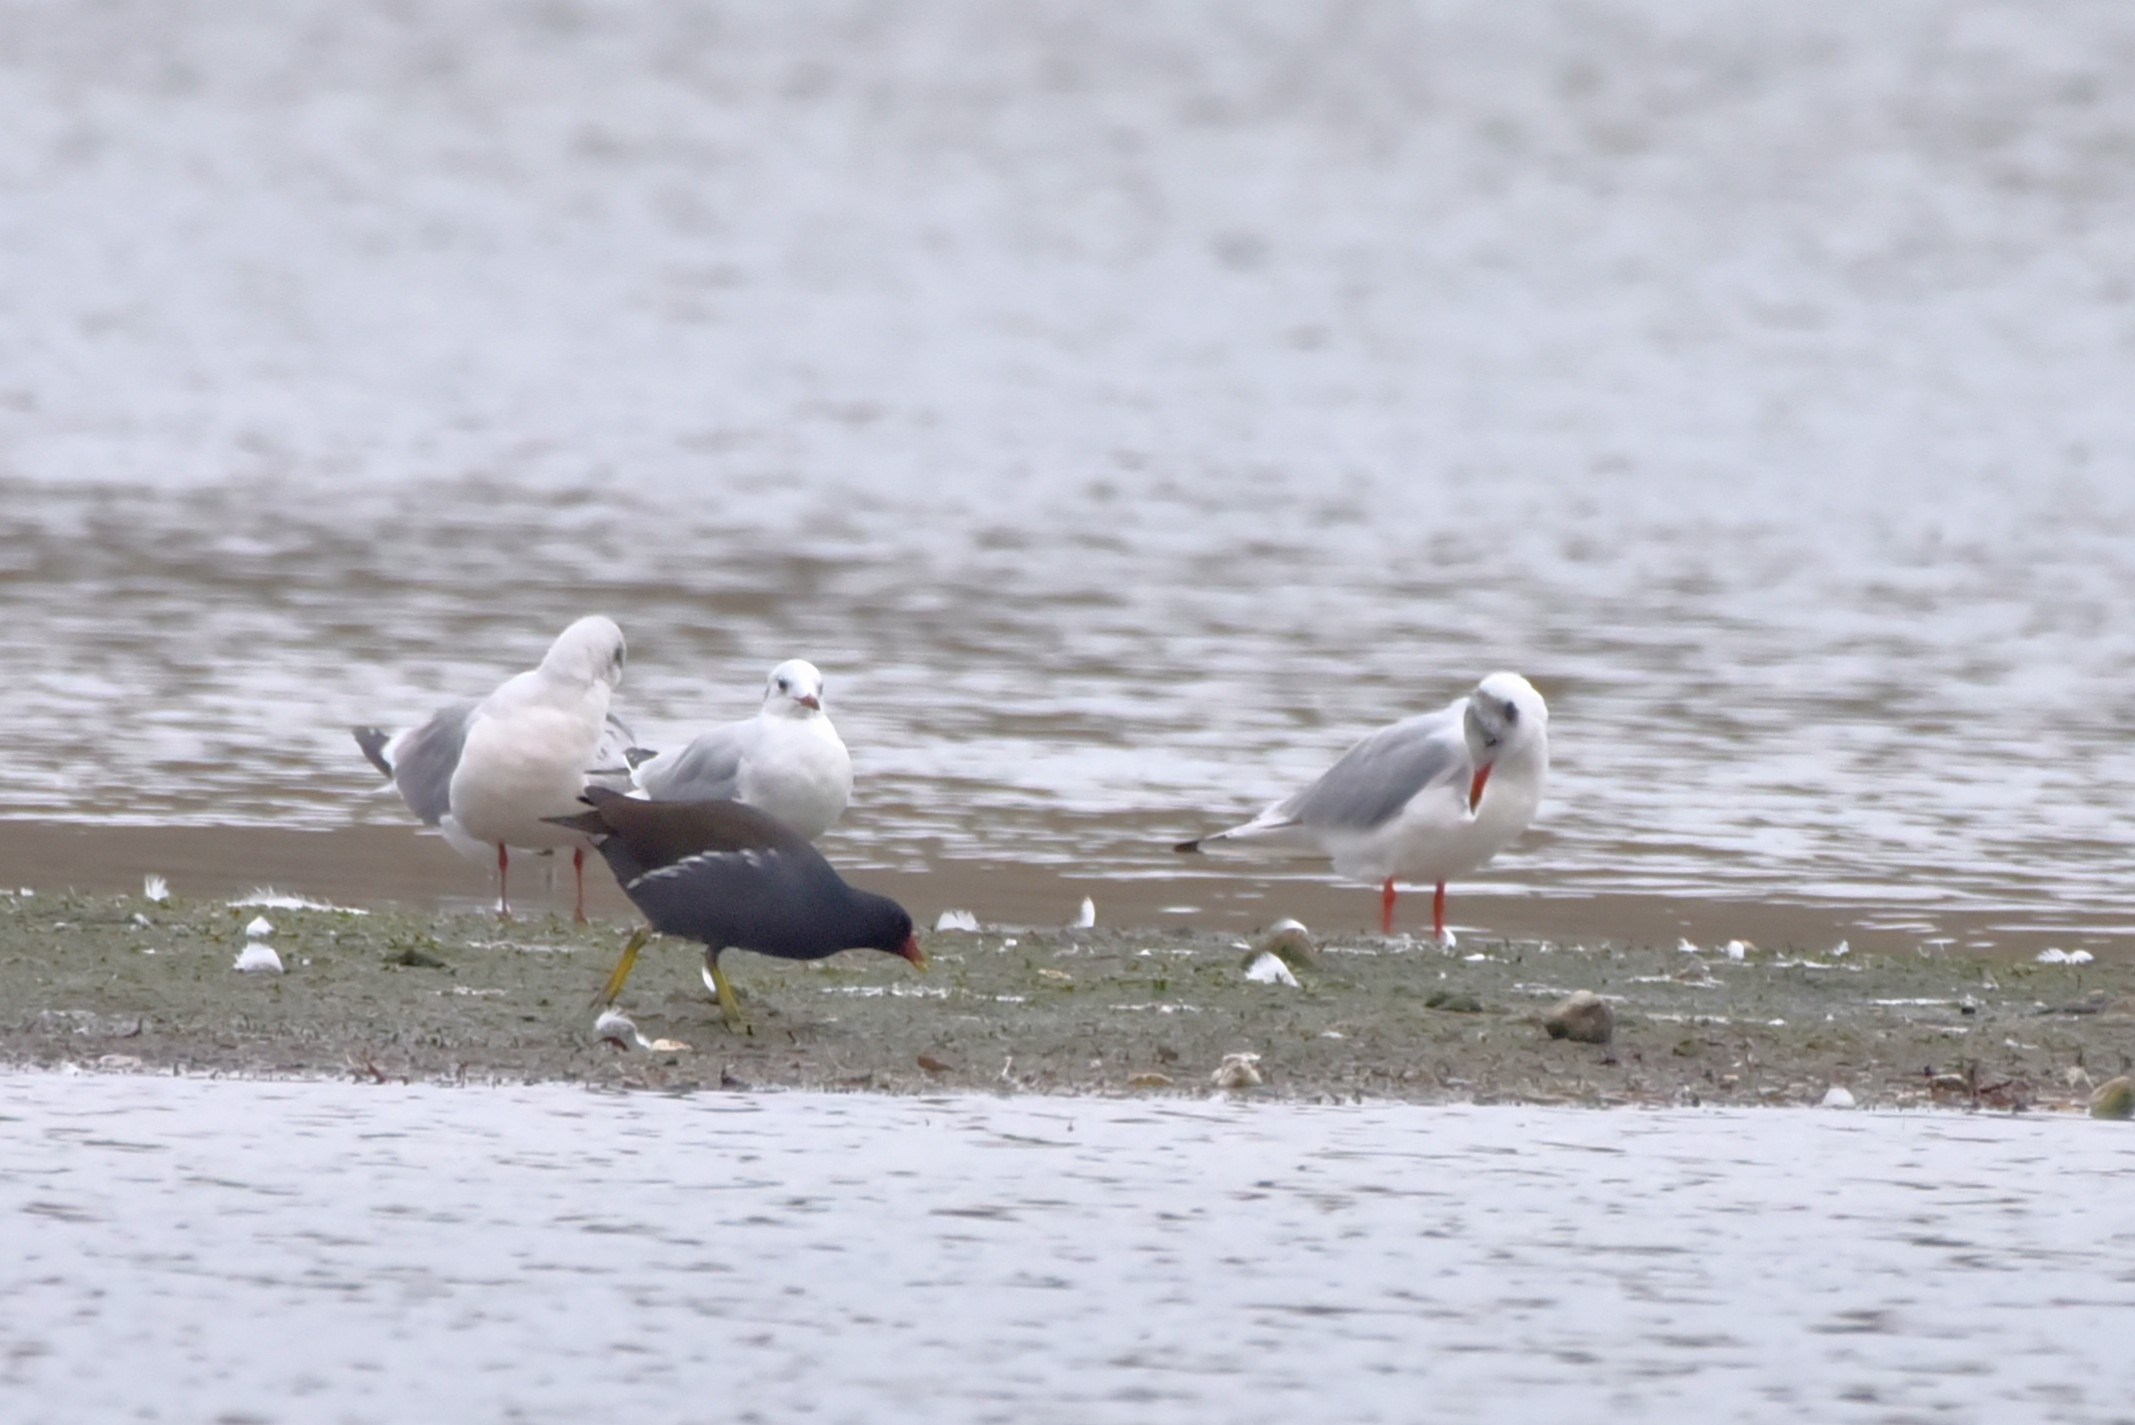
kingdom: Animalia
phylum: Chordata
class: Aves
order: Gruiformes
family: Rallidae
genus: Gallinula
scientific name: Gallinula chloropus
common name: Grønbenet rørhøne
